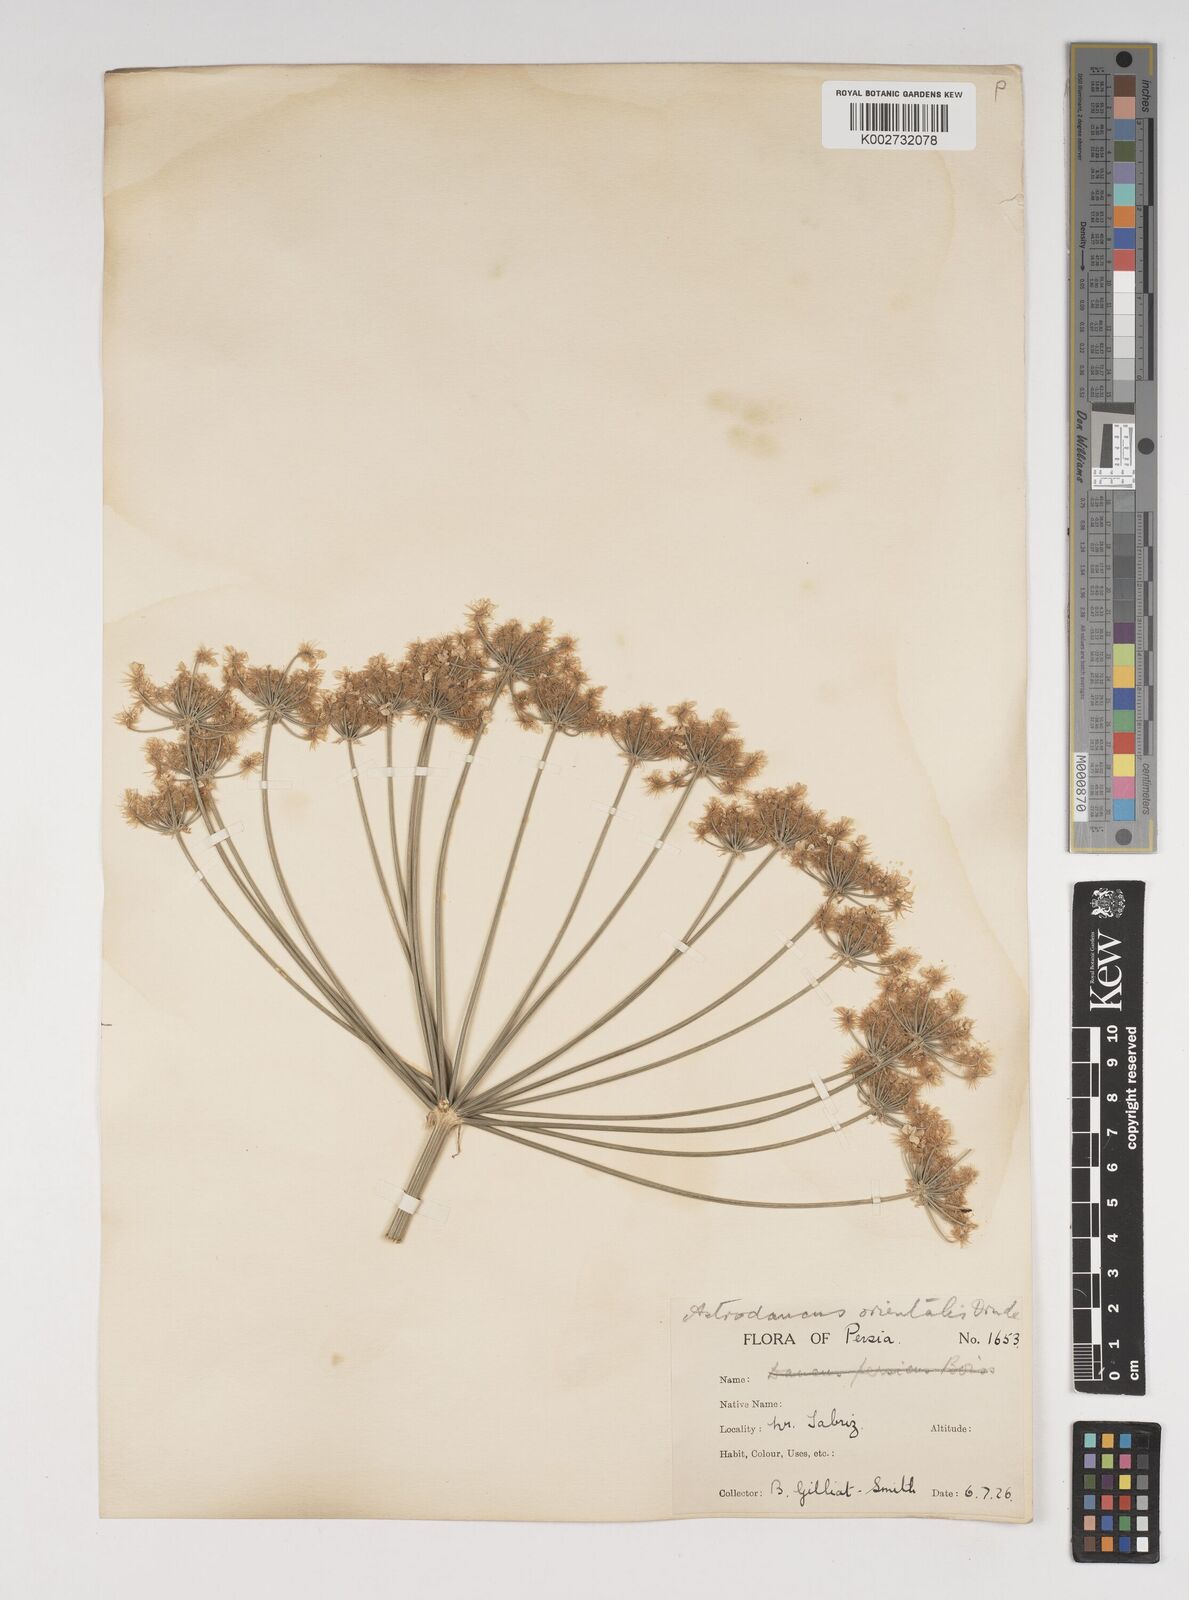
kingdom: Plantae
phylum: Tracheophyta
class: Magnoliopsida
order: Apiales
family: Apiaceae
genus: Astrodaucus
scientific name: Astrodaucus
